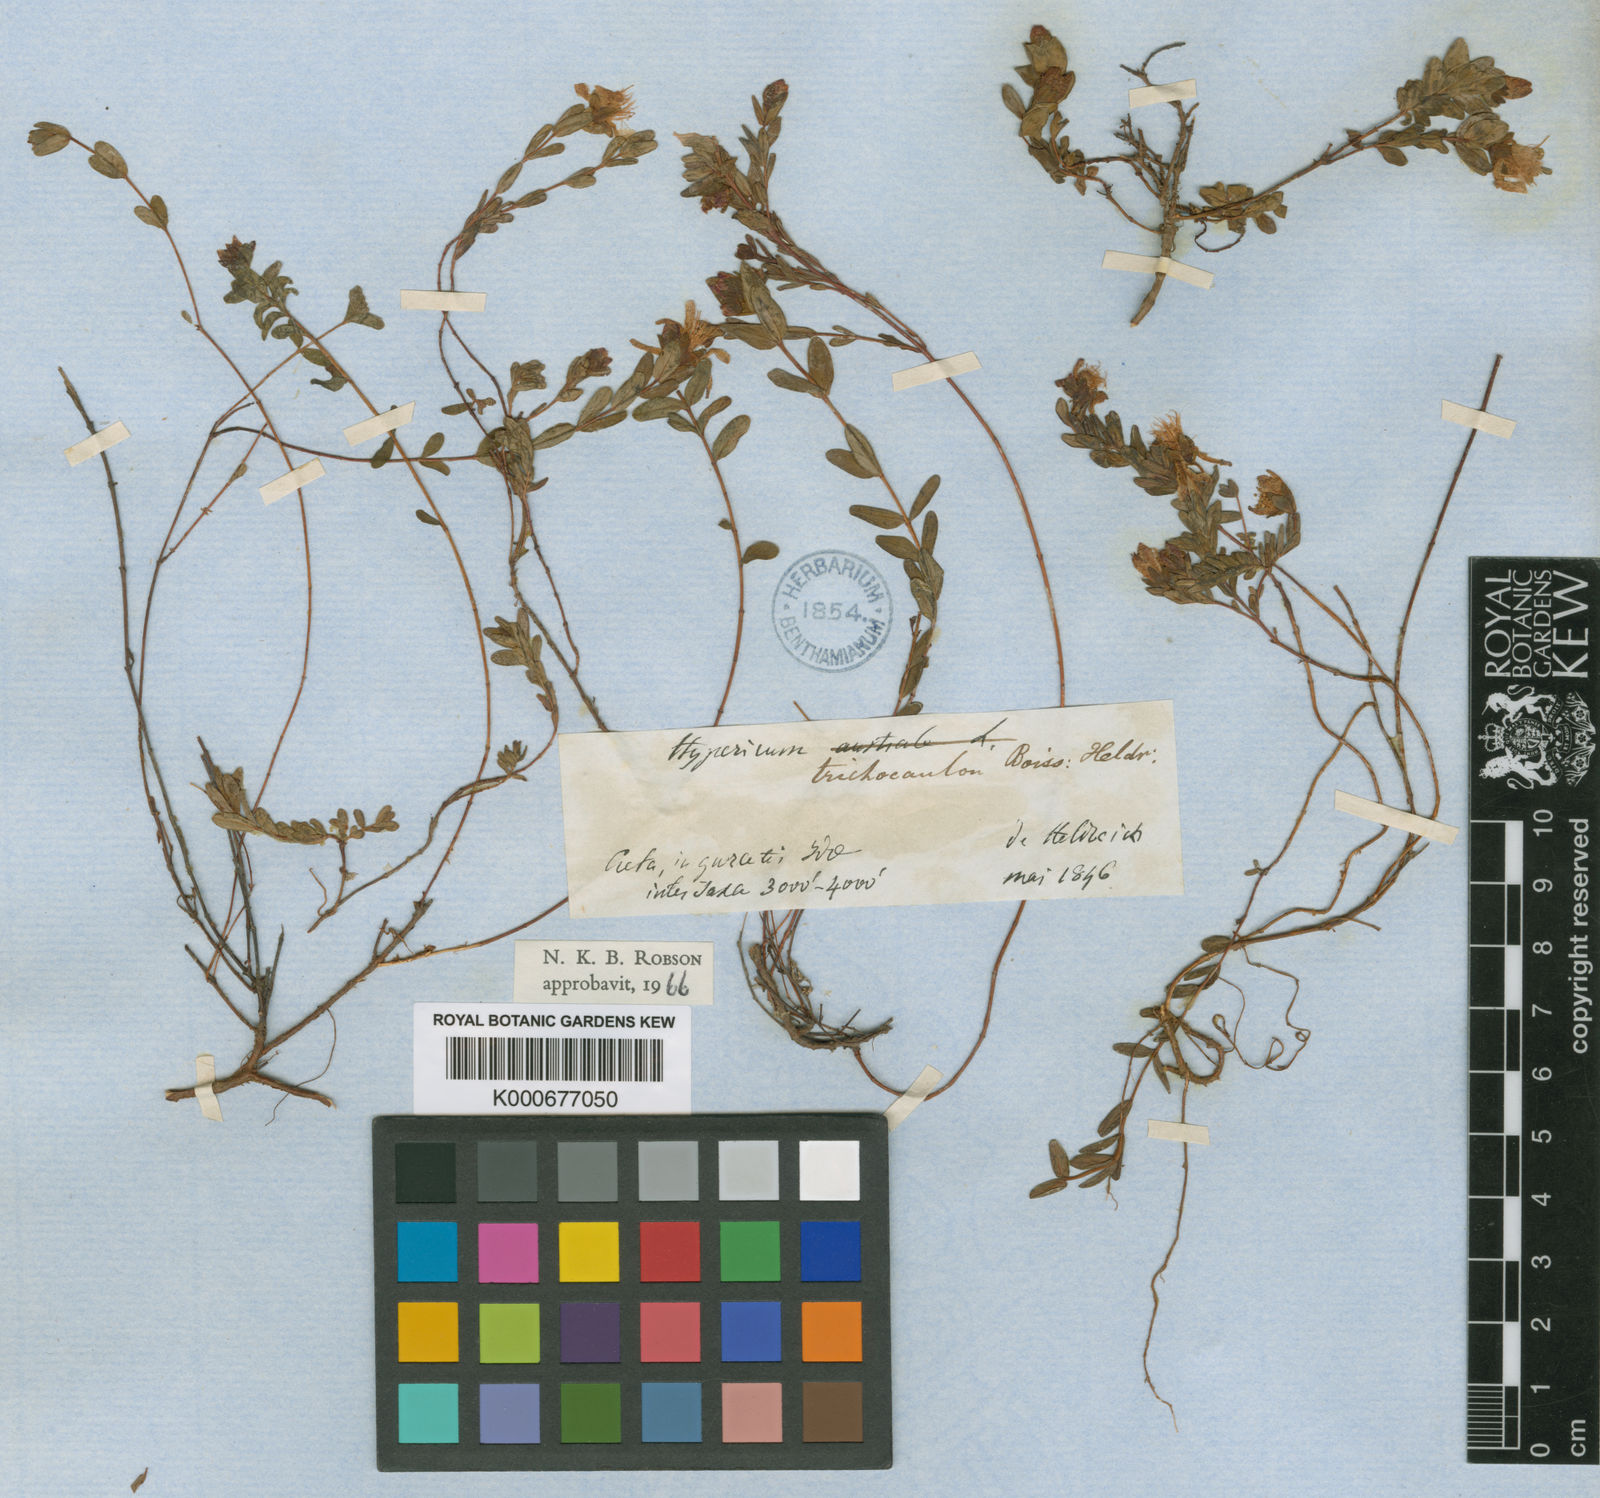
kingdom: Plantae
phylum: Tracheophyta
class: Magnoliopsida
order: Malpighiales
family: Hypericaceae
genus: Hypericum
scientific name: Hypericum trichocaulon
